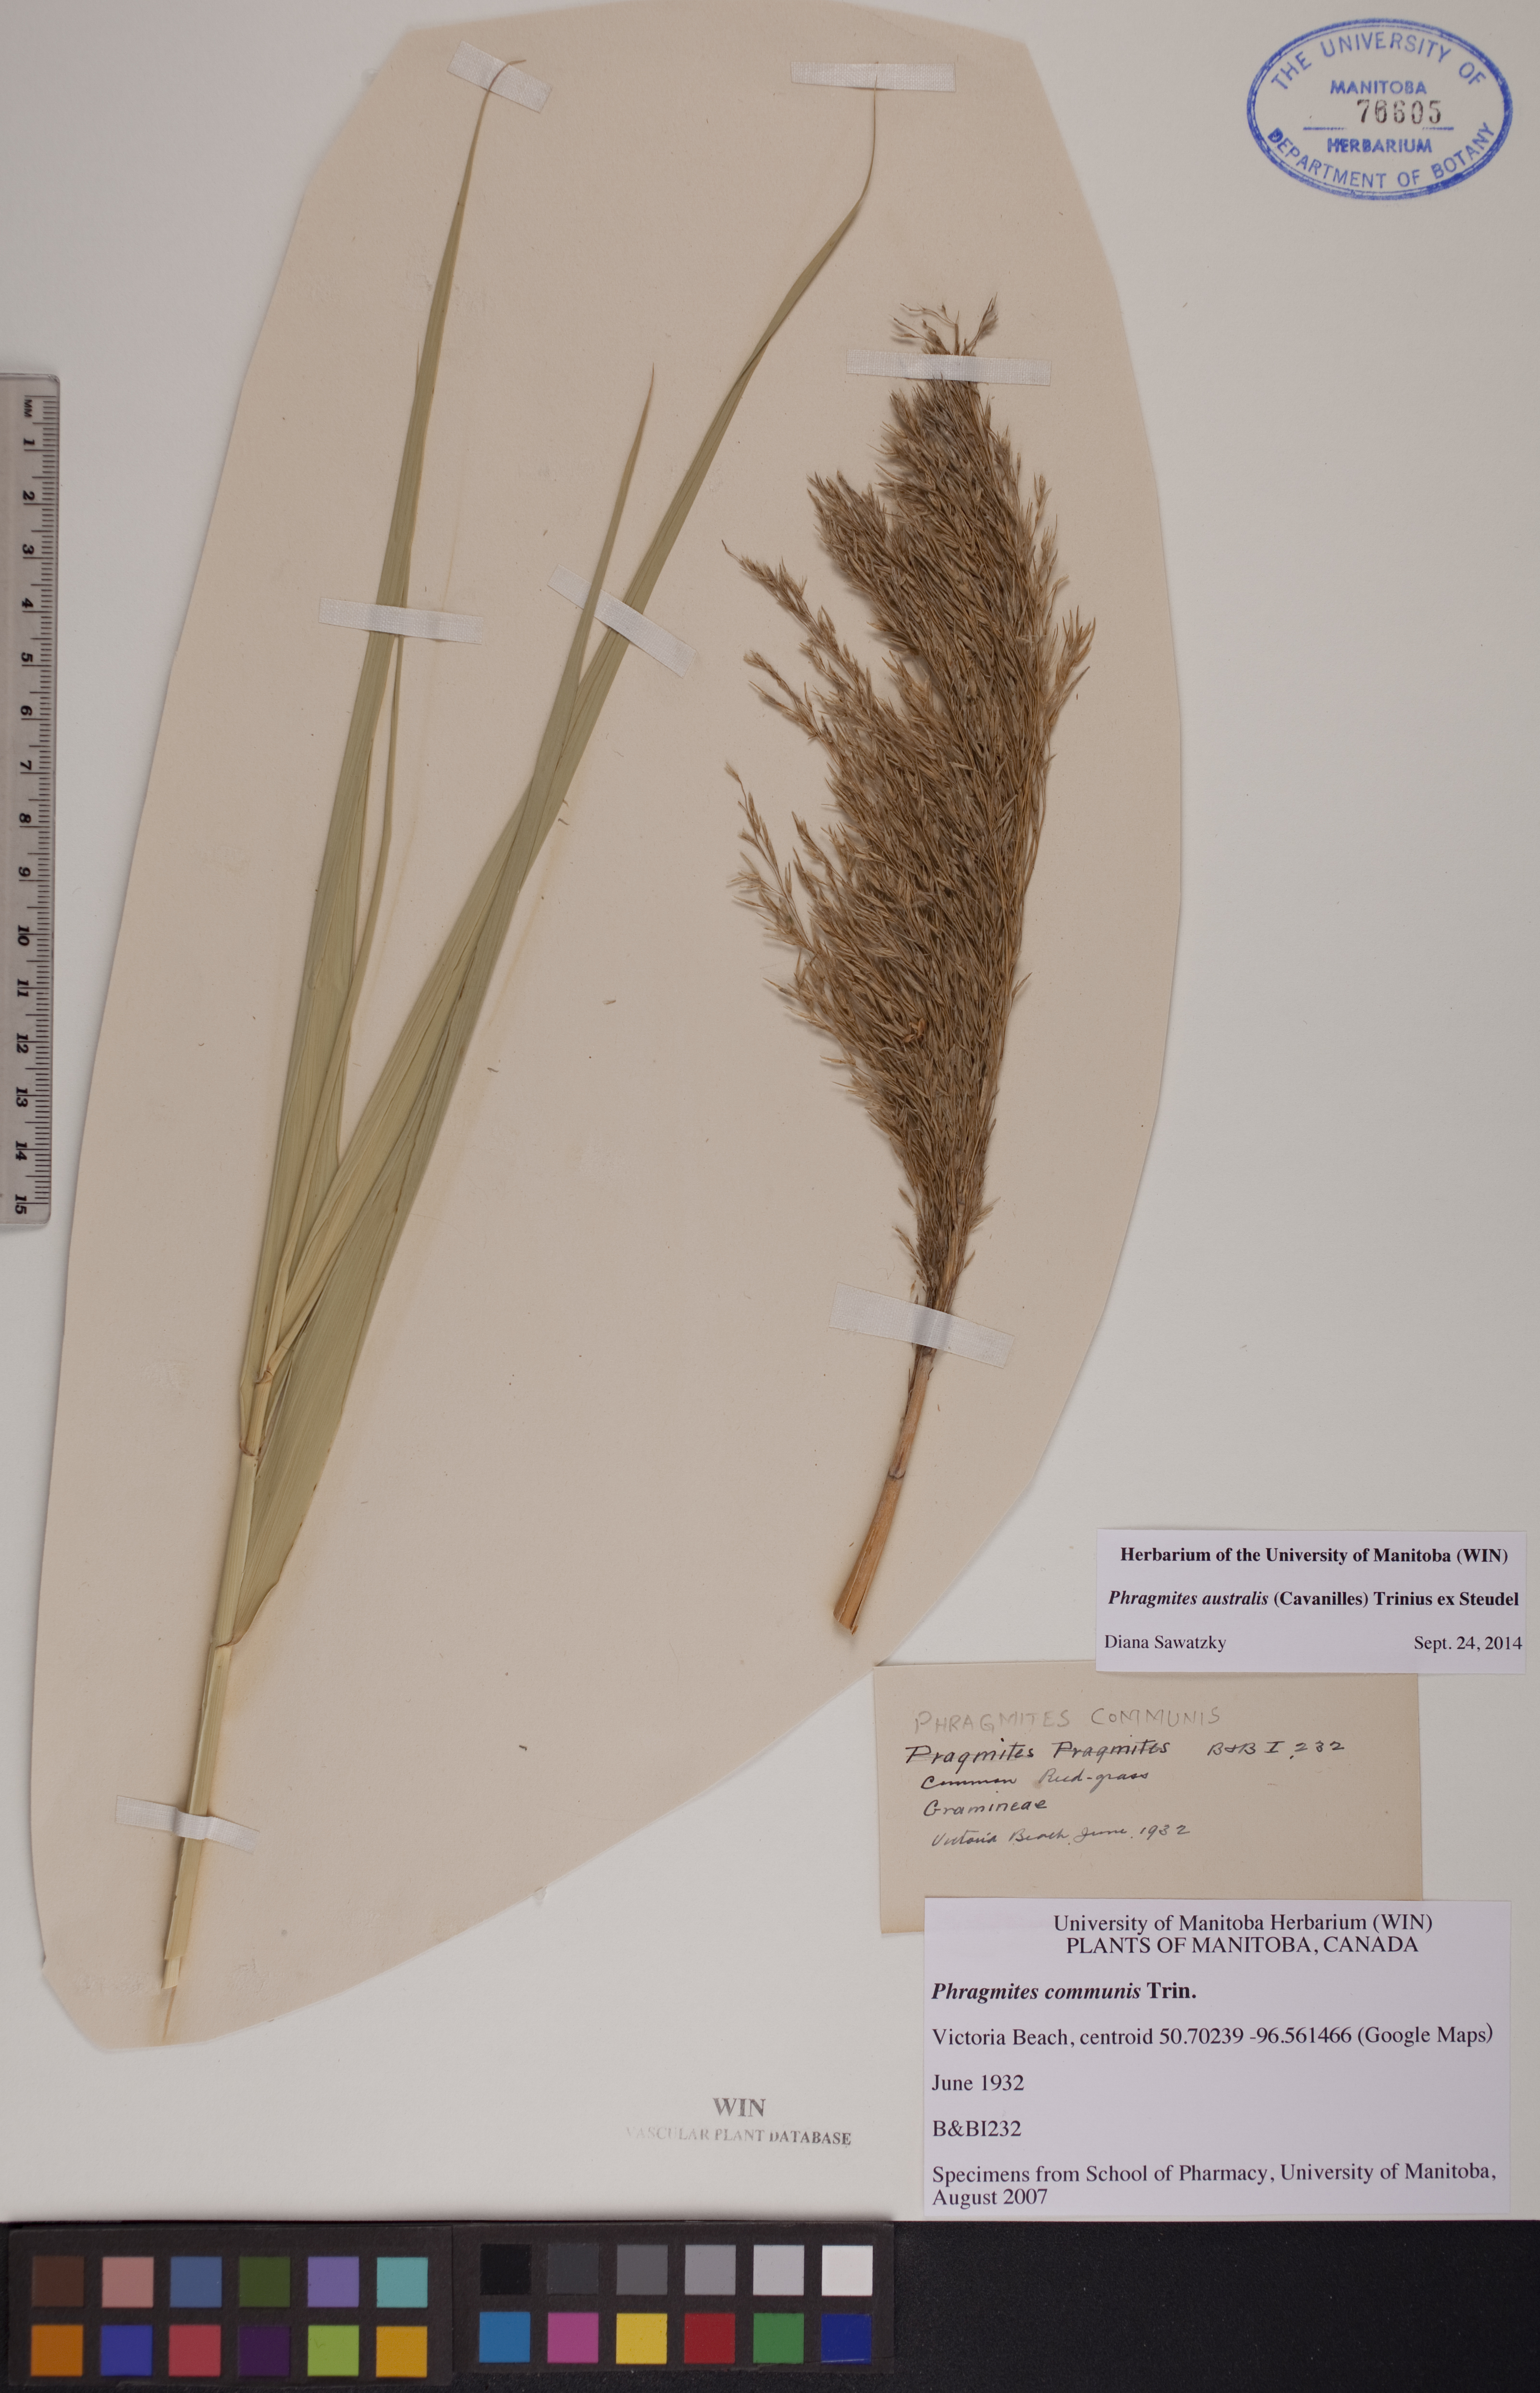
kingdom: Plantae
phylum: Tracheophyta
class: Liliopsida
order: Poales
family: Poaceae
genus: Phragmites
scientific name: Phragmites australis
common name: Common reed
